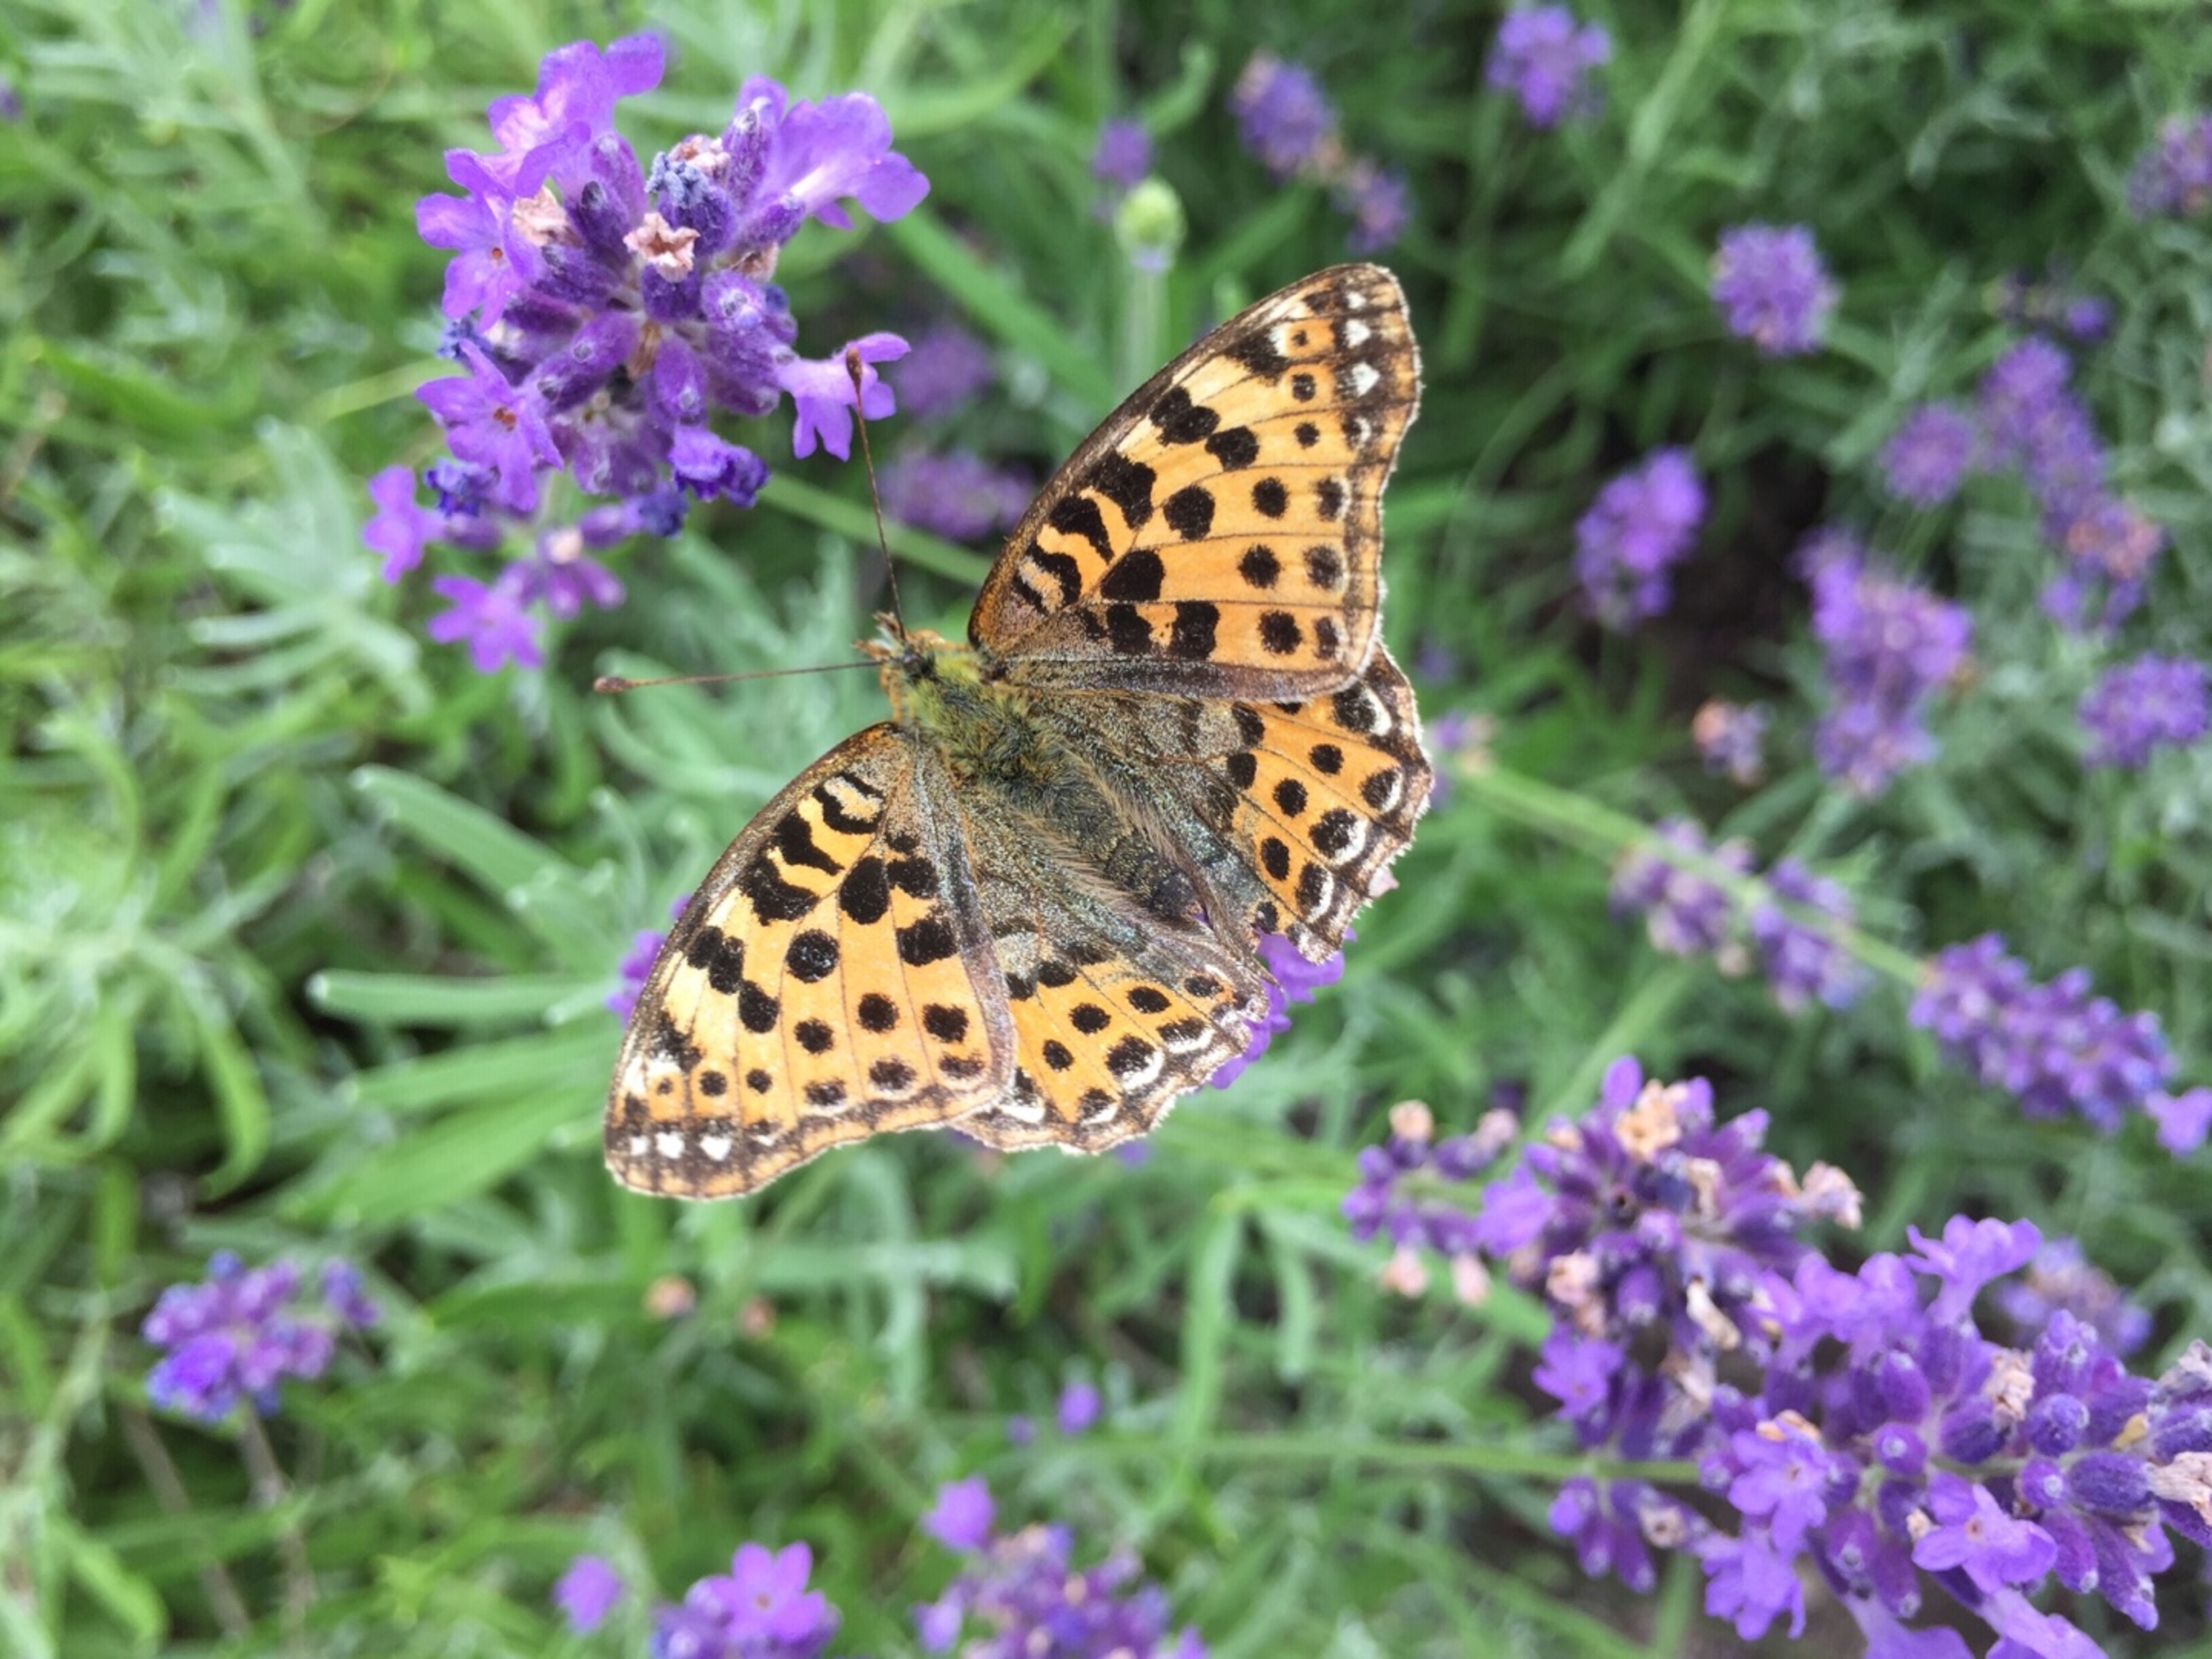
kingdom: Animalia
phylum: Arthropoda
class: Insecta
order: Lepidoptera
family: Nymphalidae
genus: Issoria
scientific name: Issoria lathonia
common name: Storplettet perlemorsommerfugl
